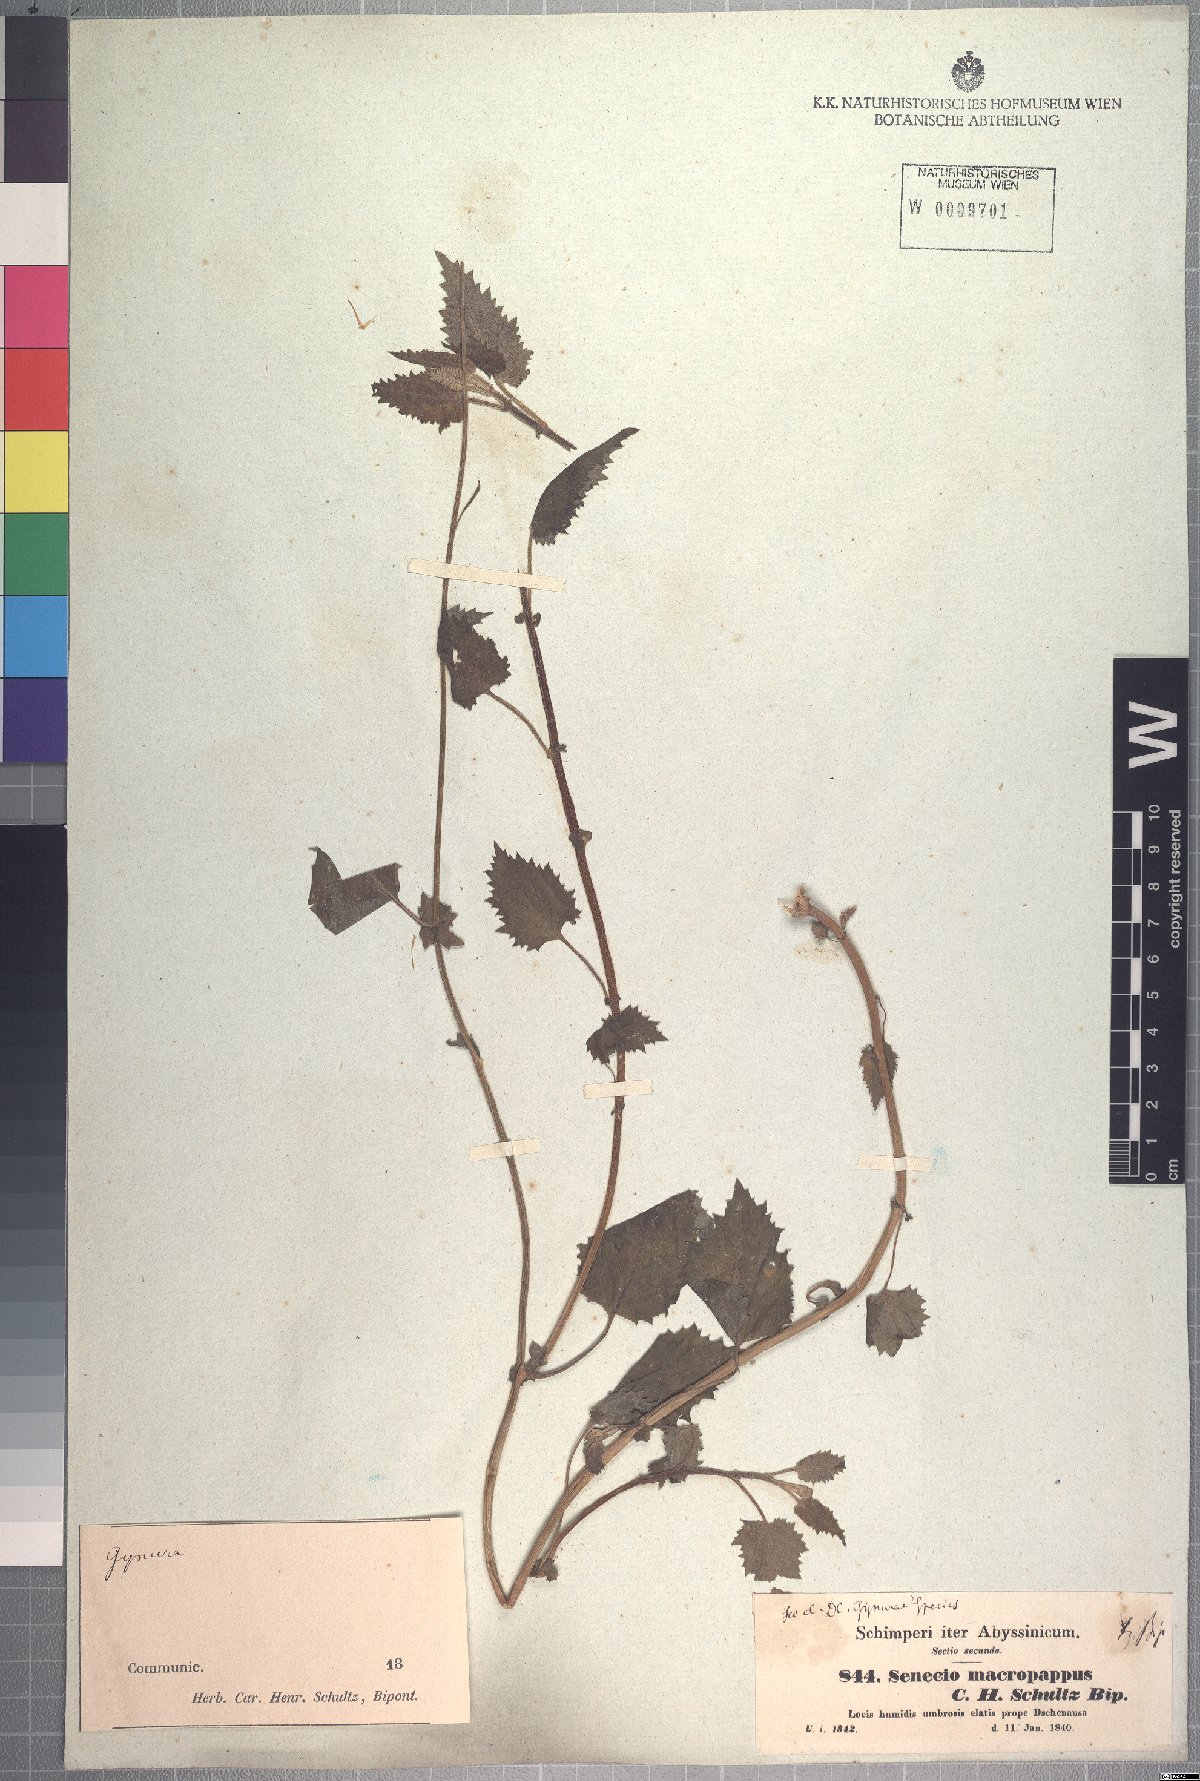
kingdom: Plantae
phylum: Tracheophyta
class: Magnoliopsida
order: Asterales
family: Asteraceae
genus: Crassocephalum
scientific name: Crassocephalum macropappus
